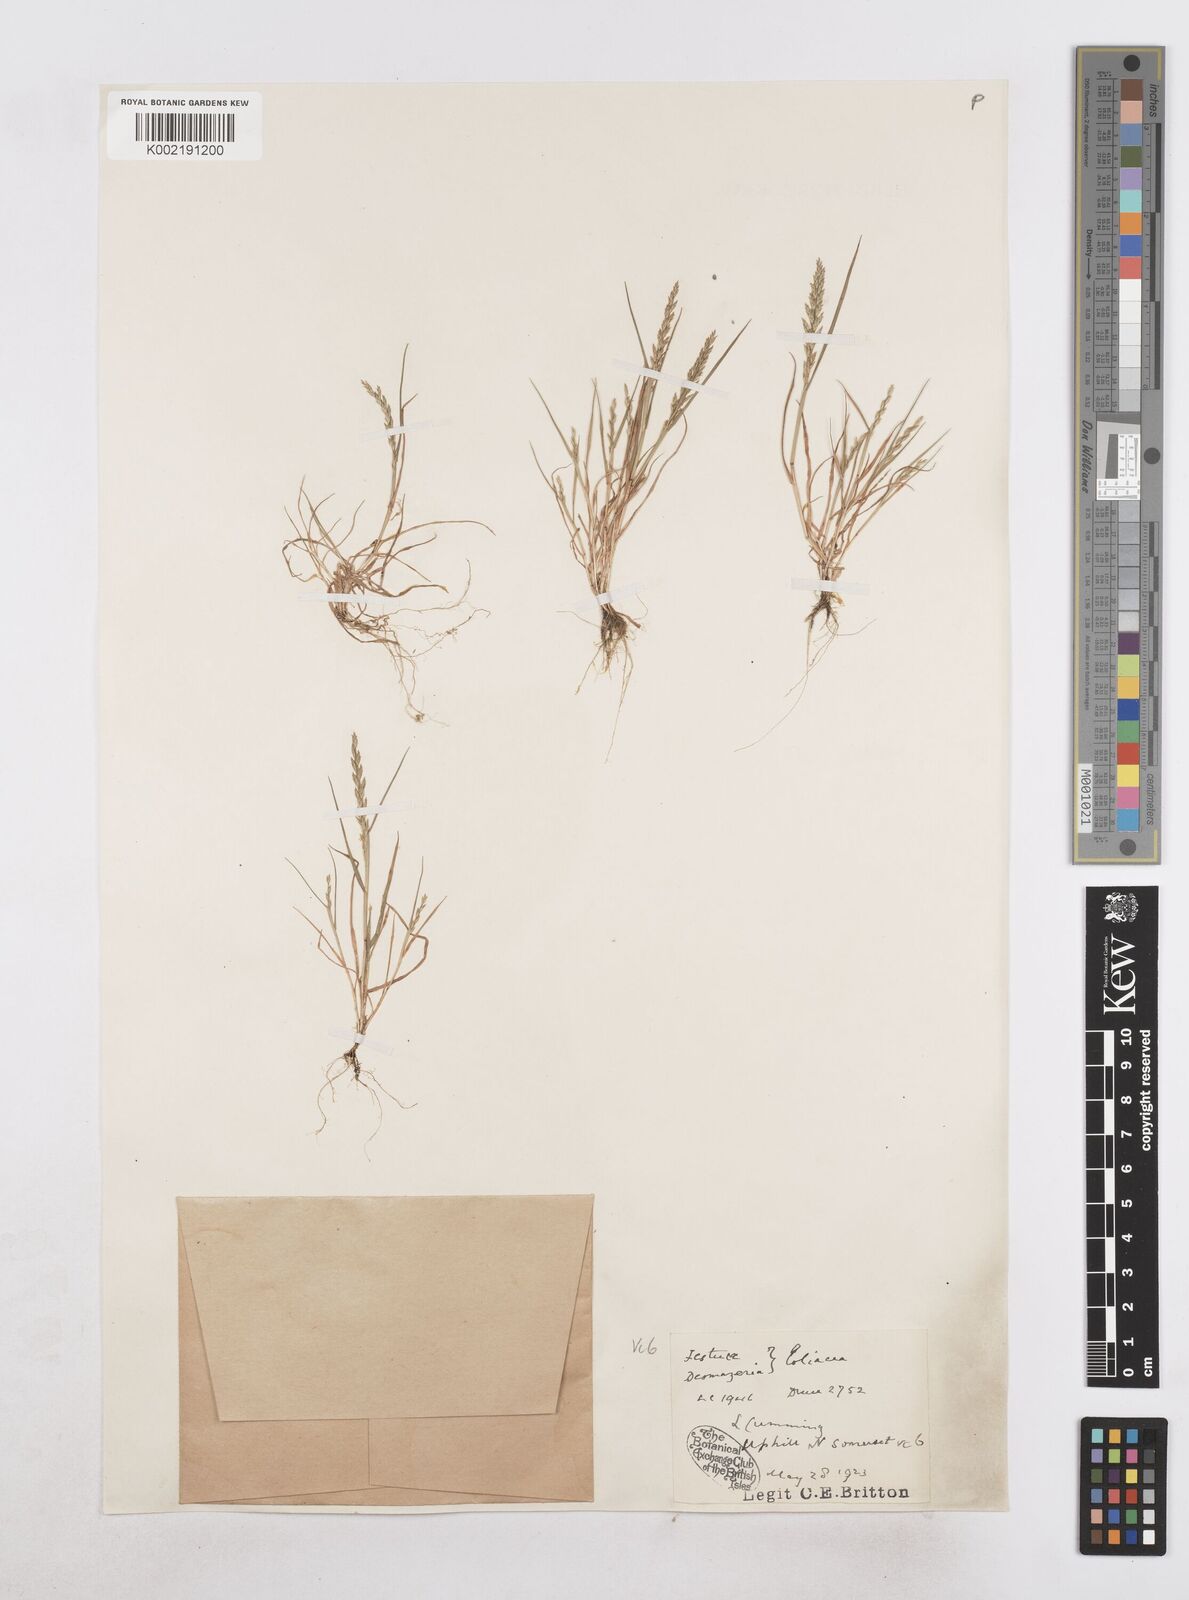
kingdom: Plantae
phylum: Tracheophyta
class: Liliopsida
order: Poales
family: Poaceae
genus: Catapodium
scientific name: Catapodium rigidum
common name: Fern-grass
